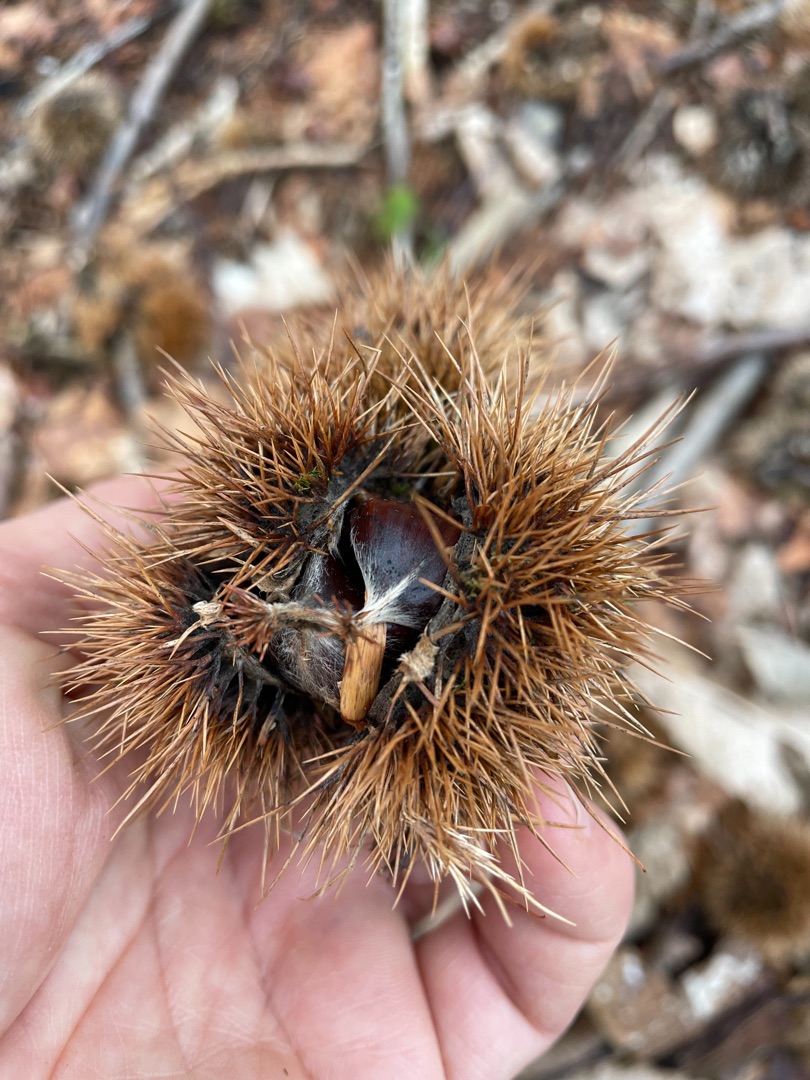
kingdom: Plantae
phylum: Tracheophyta
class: Magnoliopsida
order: Fagales
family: Fagaceae
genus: Castanea
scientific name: Castanea sativa
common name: Ægte kastanie
